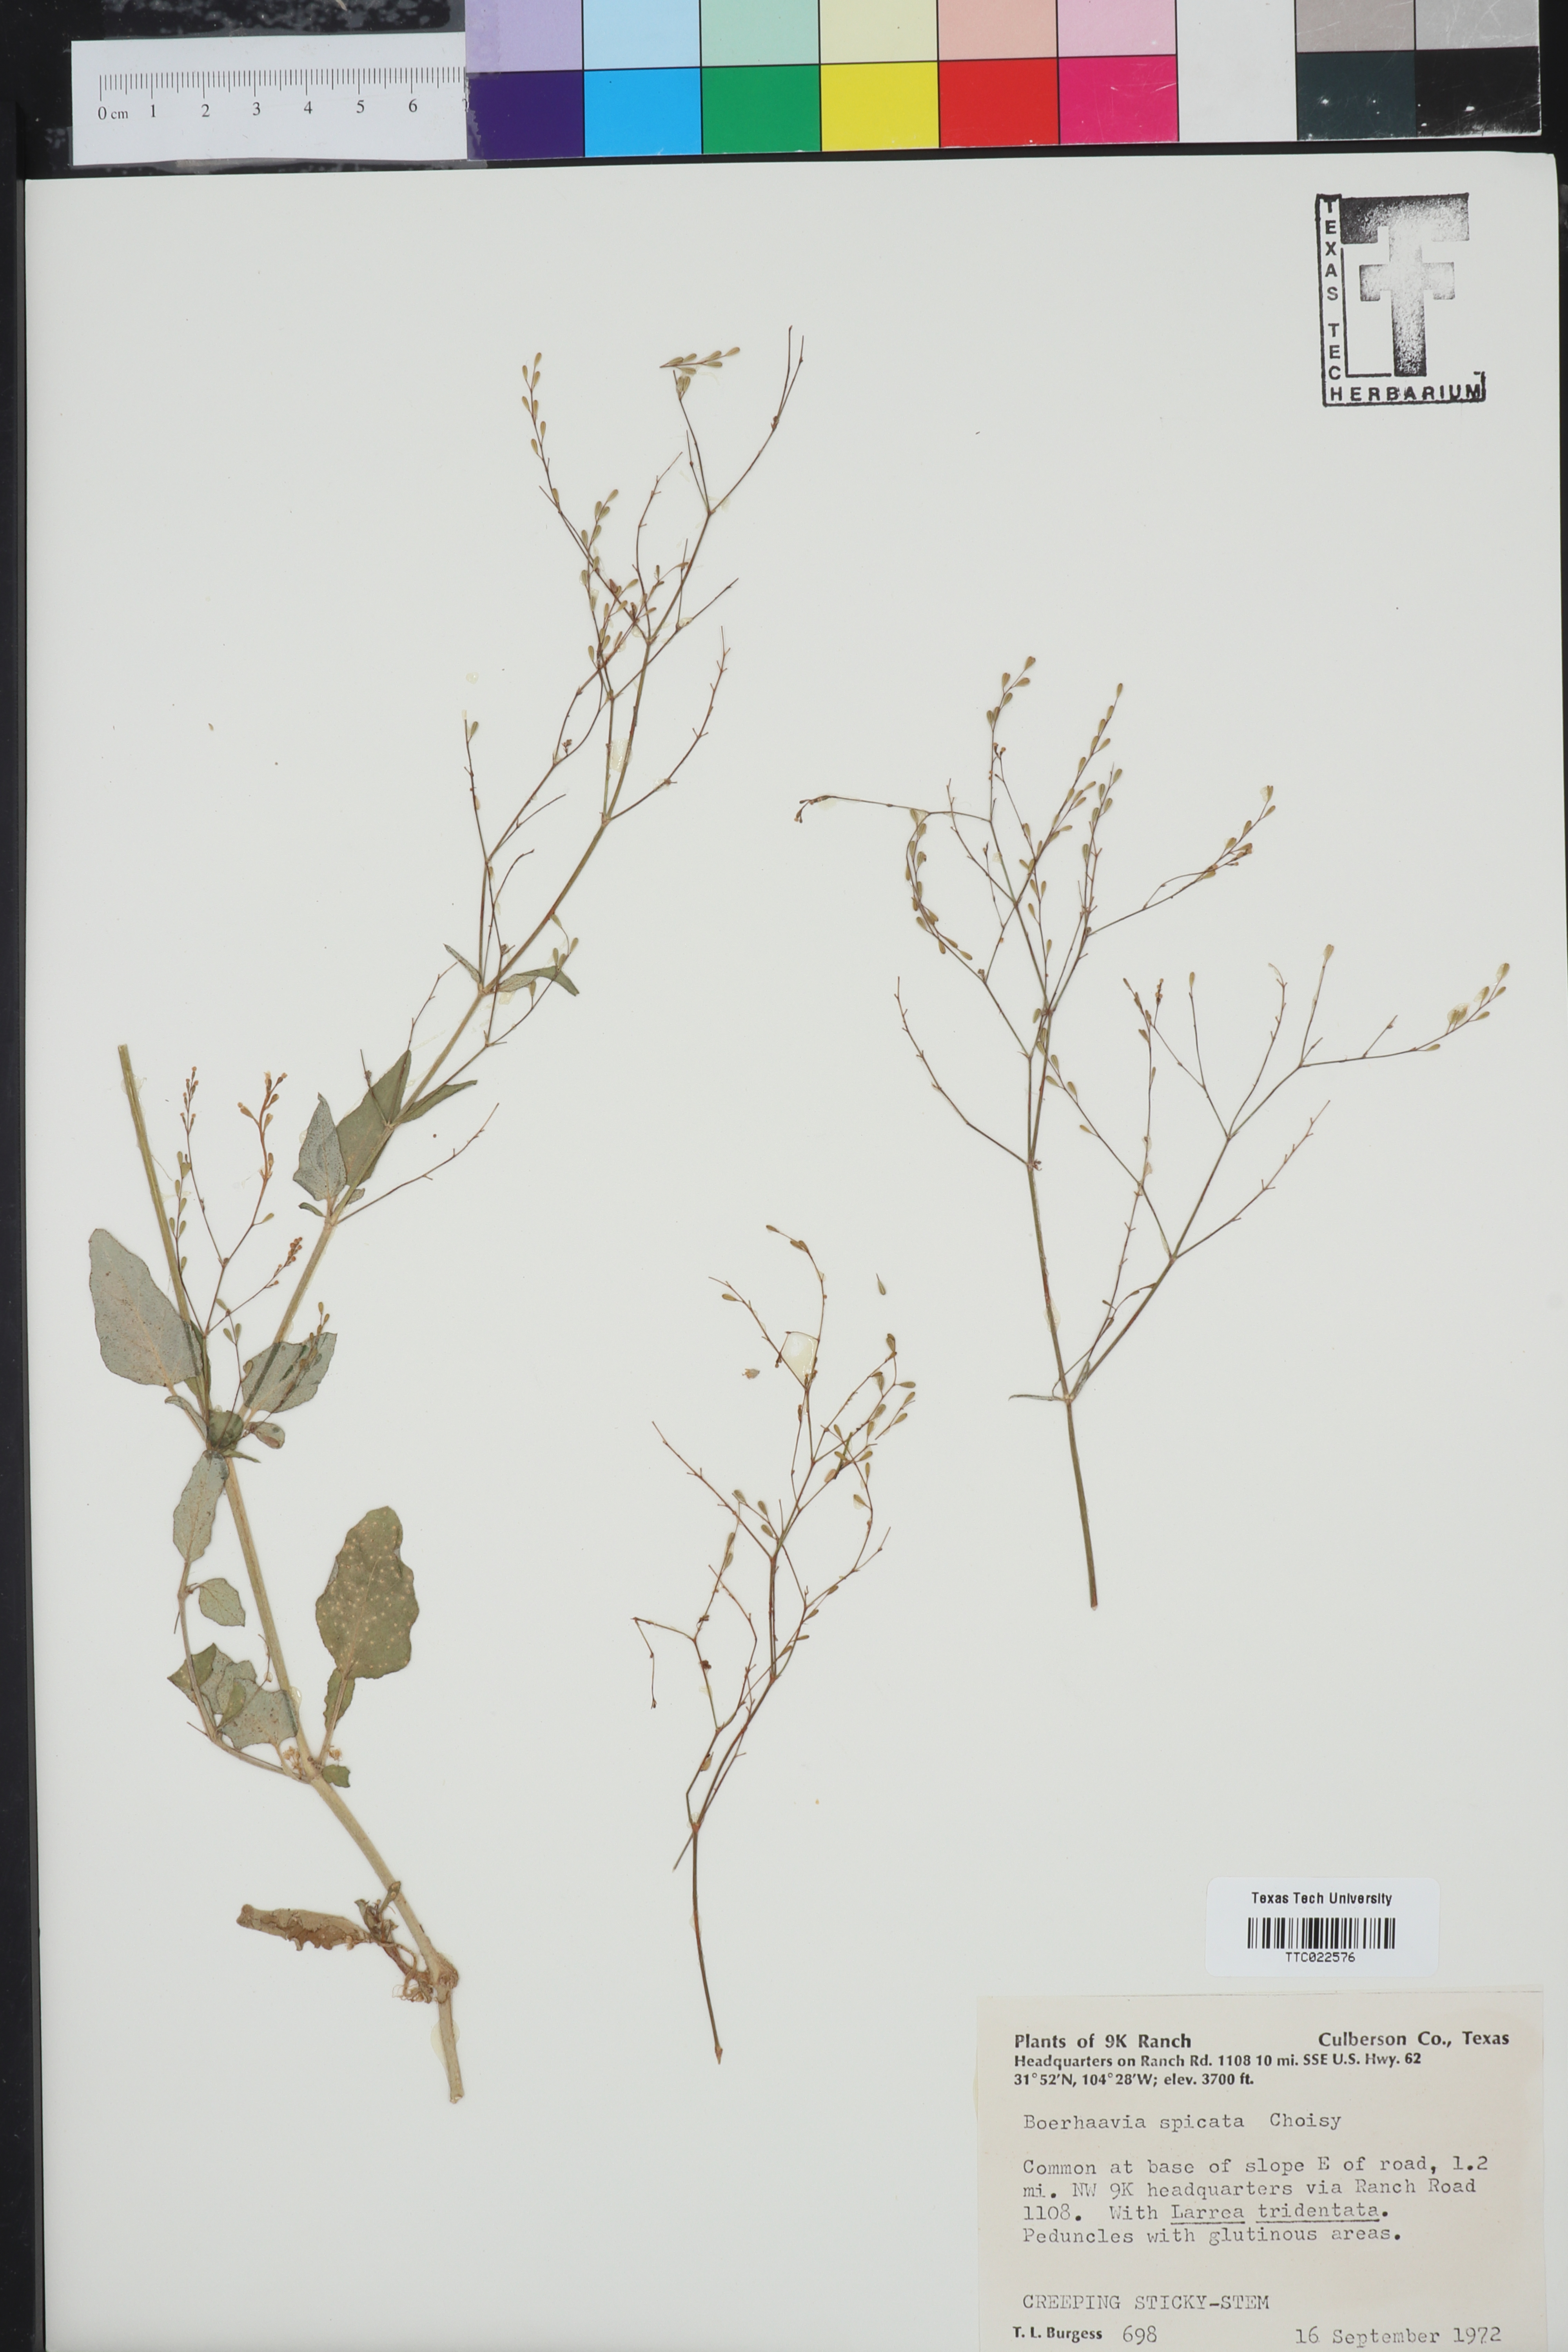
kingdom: Plantae
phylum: Tracheophyta
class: Magnoliopsida
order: Caryophyllales
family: Nyctaginaceae
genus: Boerhavia
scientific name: Boerhavia spicata
